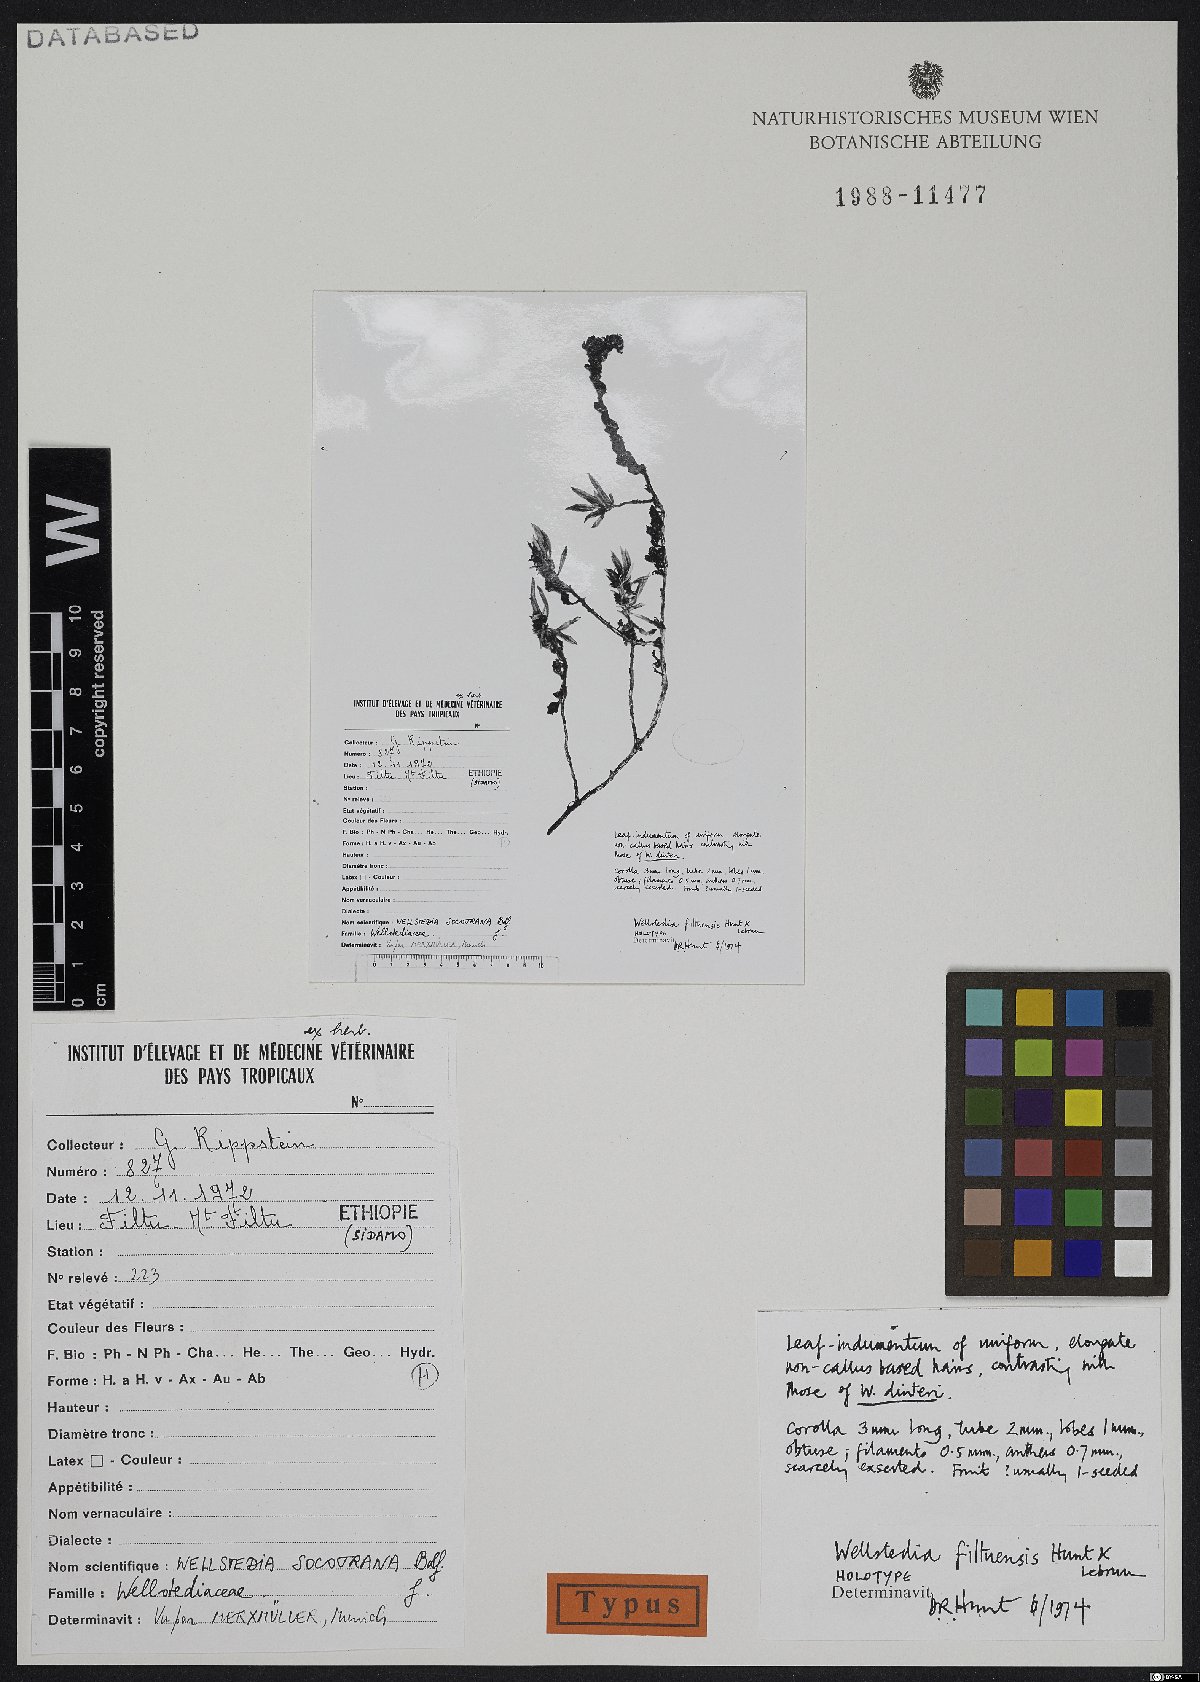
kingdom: Plantae
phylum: Tracheophyta
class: Magnoliopsida
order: Boraginales
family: Wellstediaceae
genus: Wellstedia
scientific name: Wellstedia filtuensis
